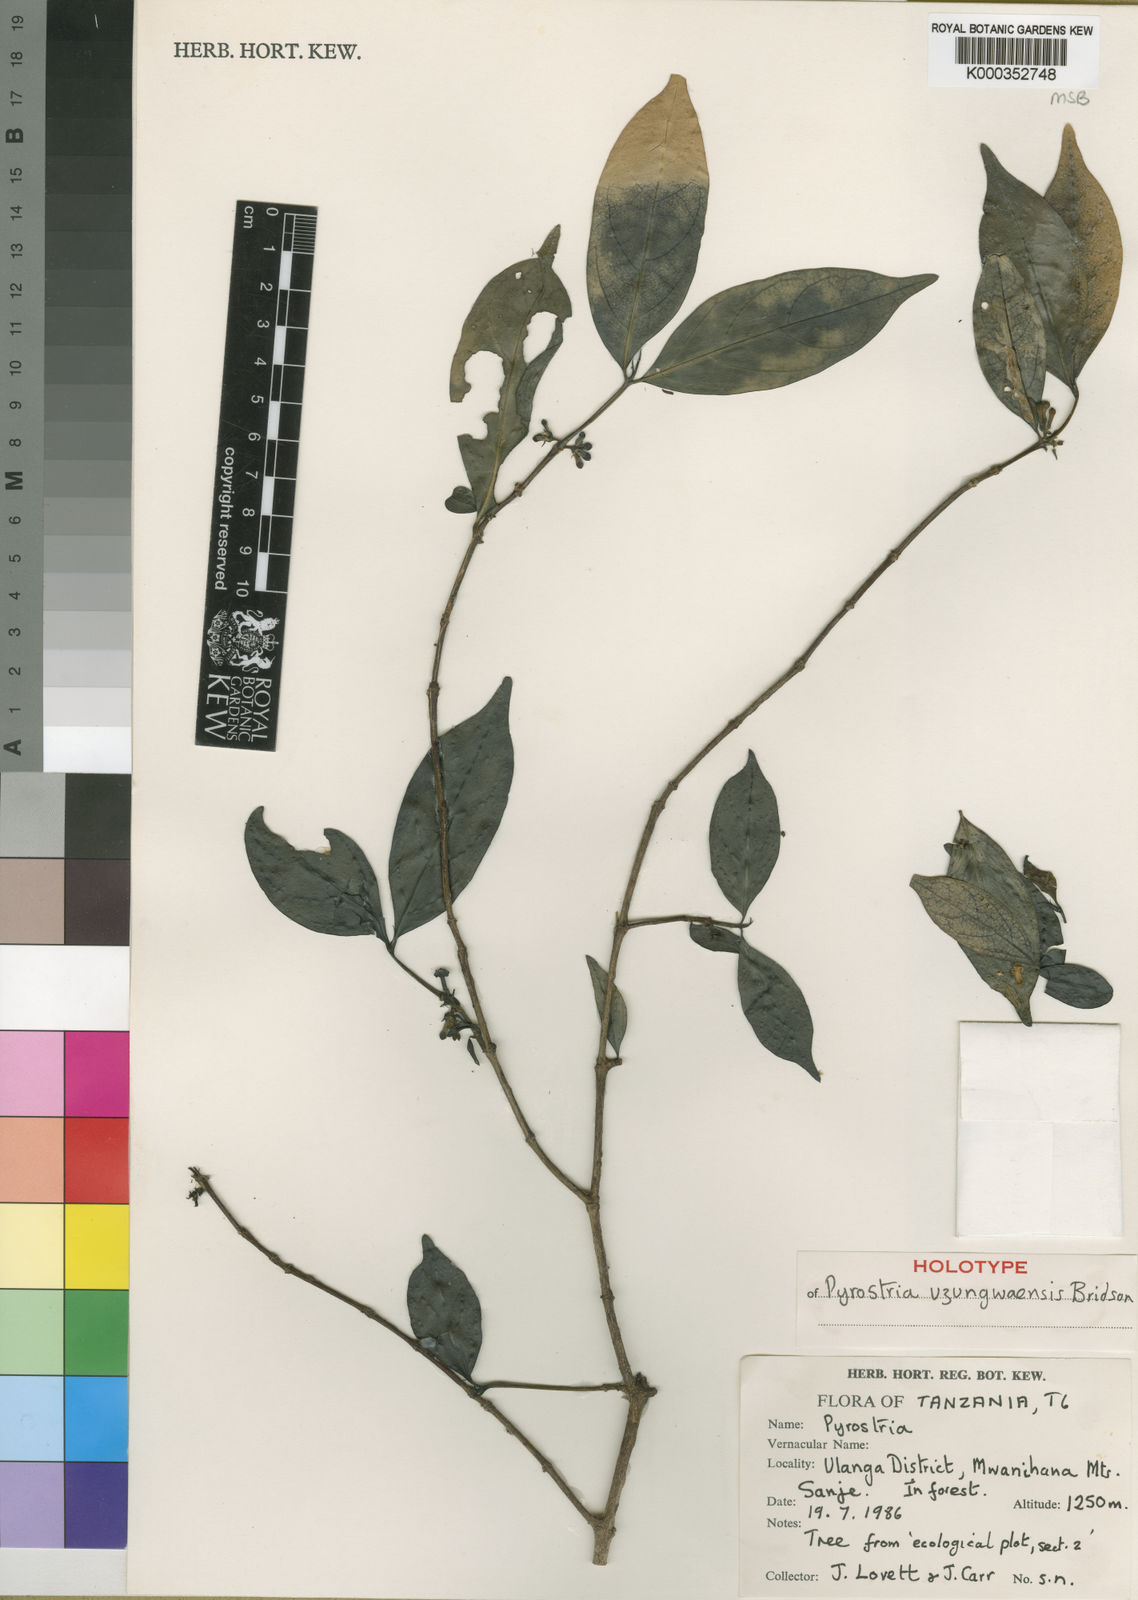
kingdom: Plantae
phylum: Tracheophyta
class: Magnoliopsida
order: Gentianales
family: Rubiaceae
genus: Pyrostria
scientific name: Pyrostria uzungwaensis
